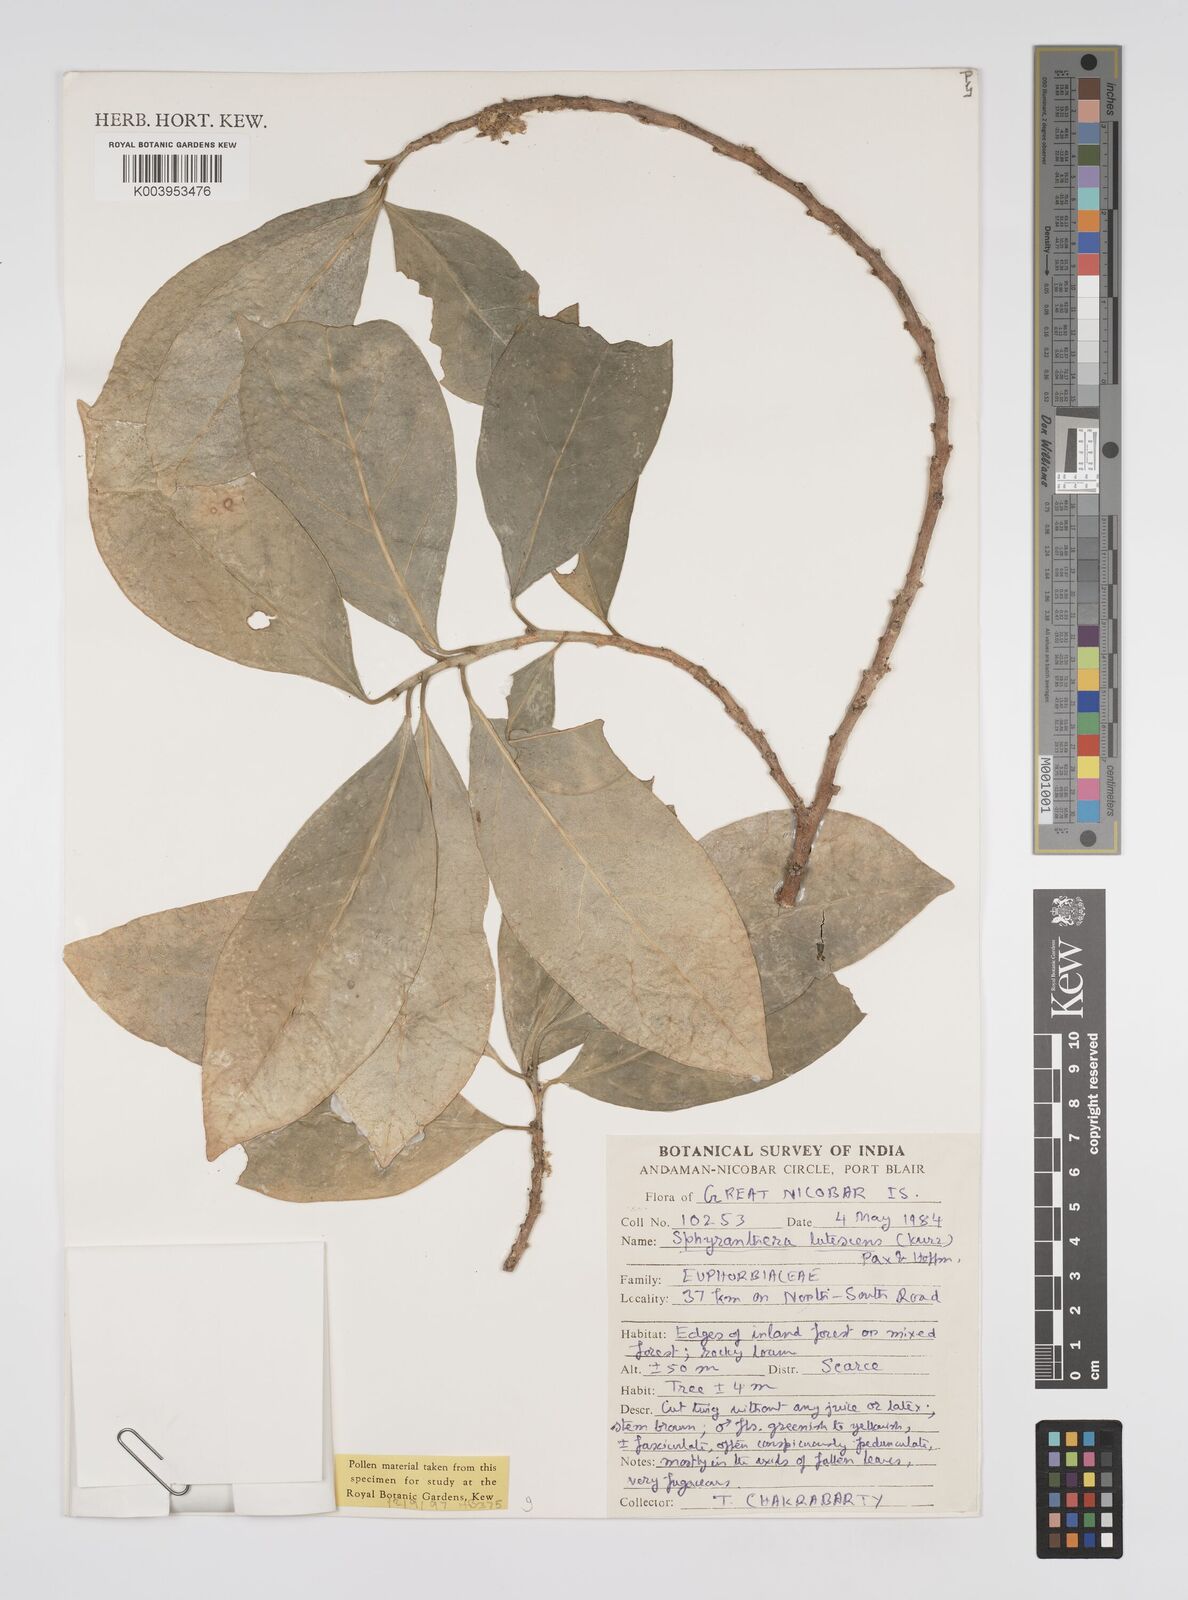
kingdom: Plantae
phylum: Tracheophyta
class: Magnoliopsida
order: Malpighiales
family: Euphorbiaceae
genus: Sphyranthera
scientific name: Sphyranthera lutescens
